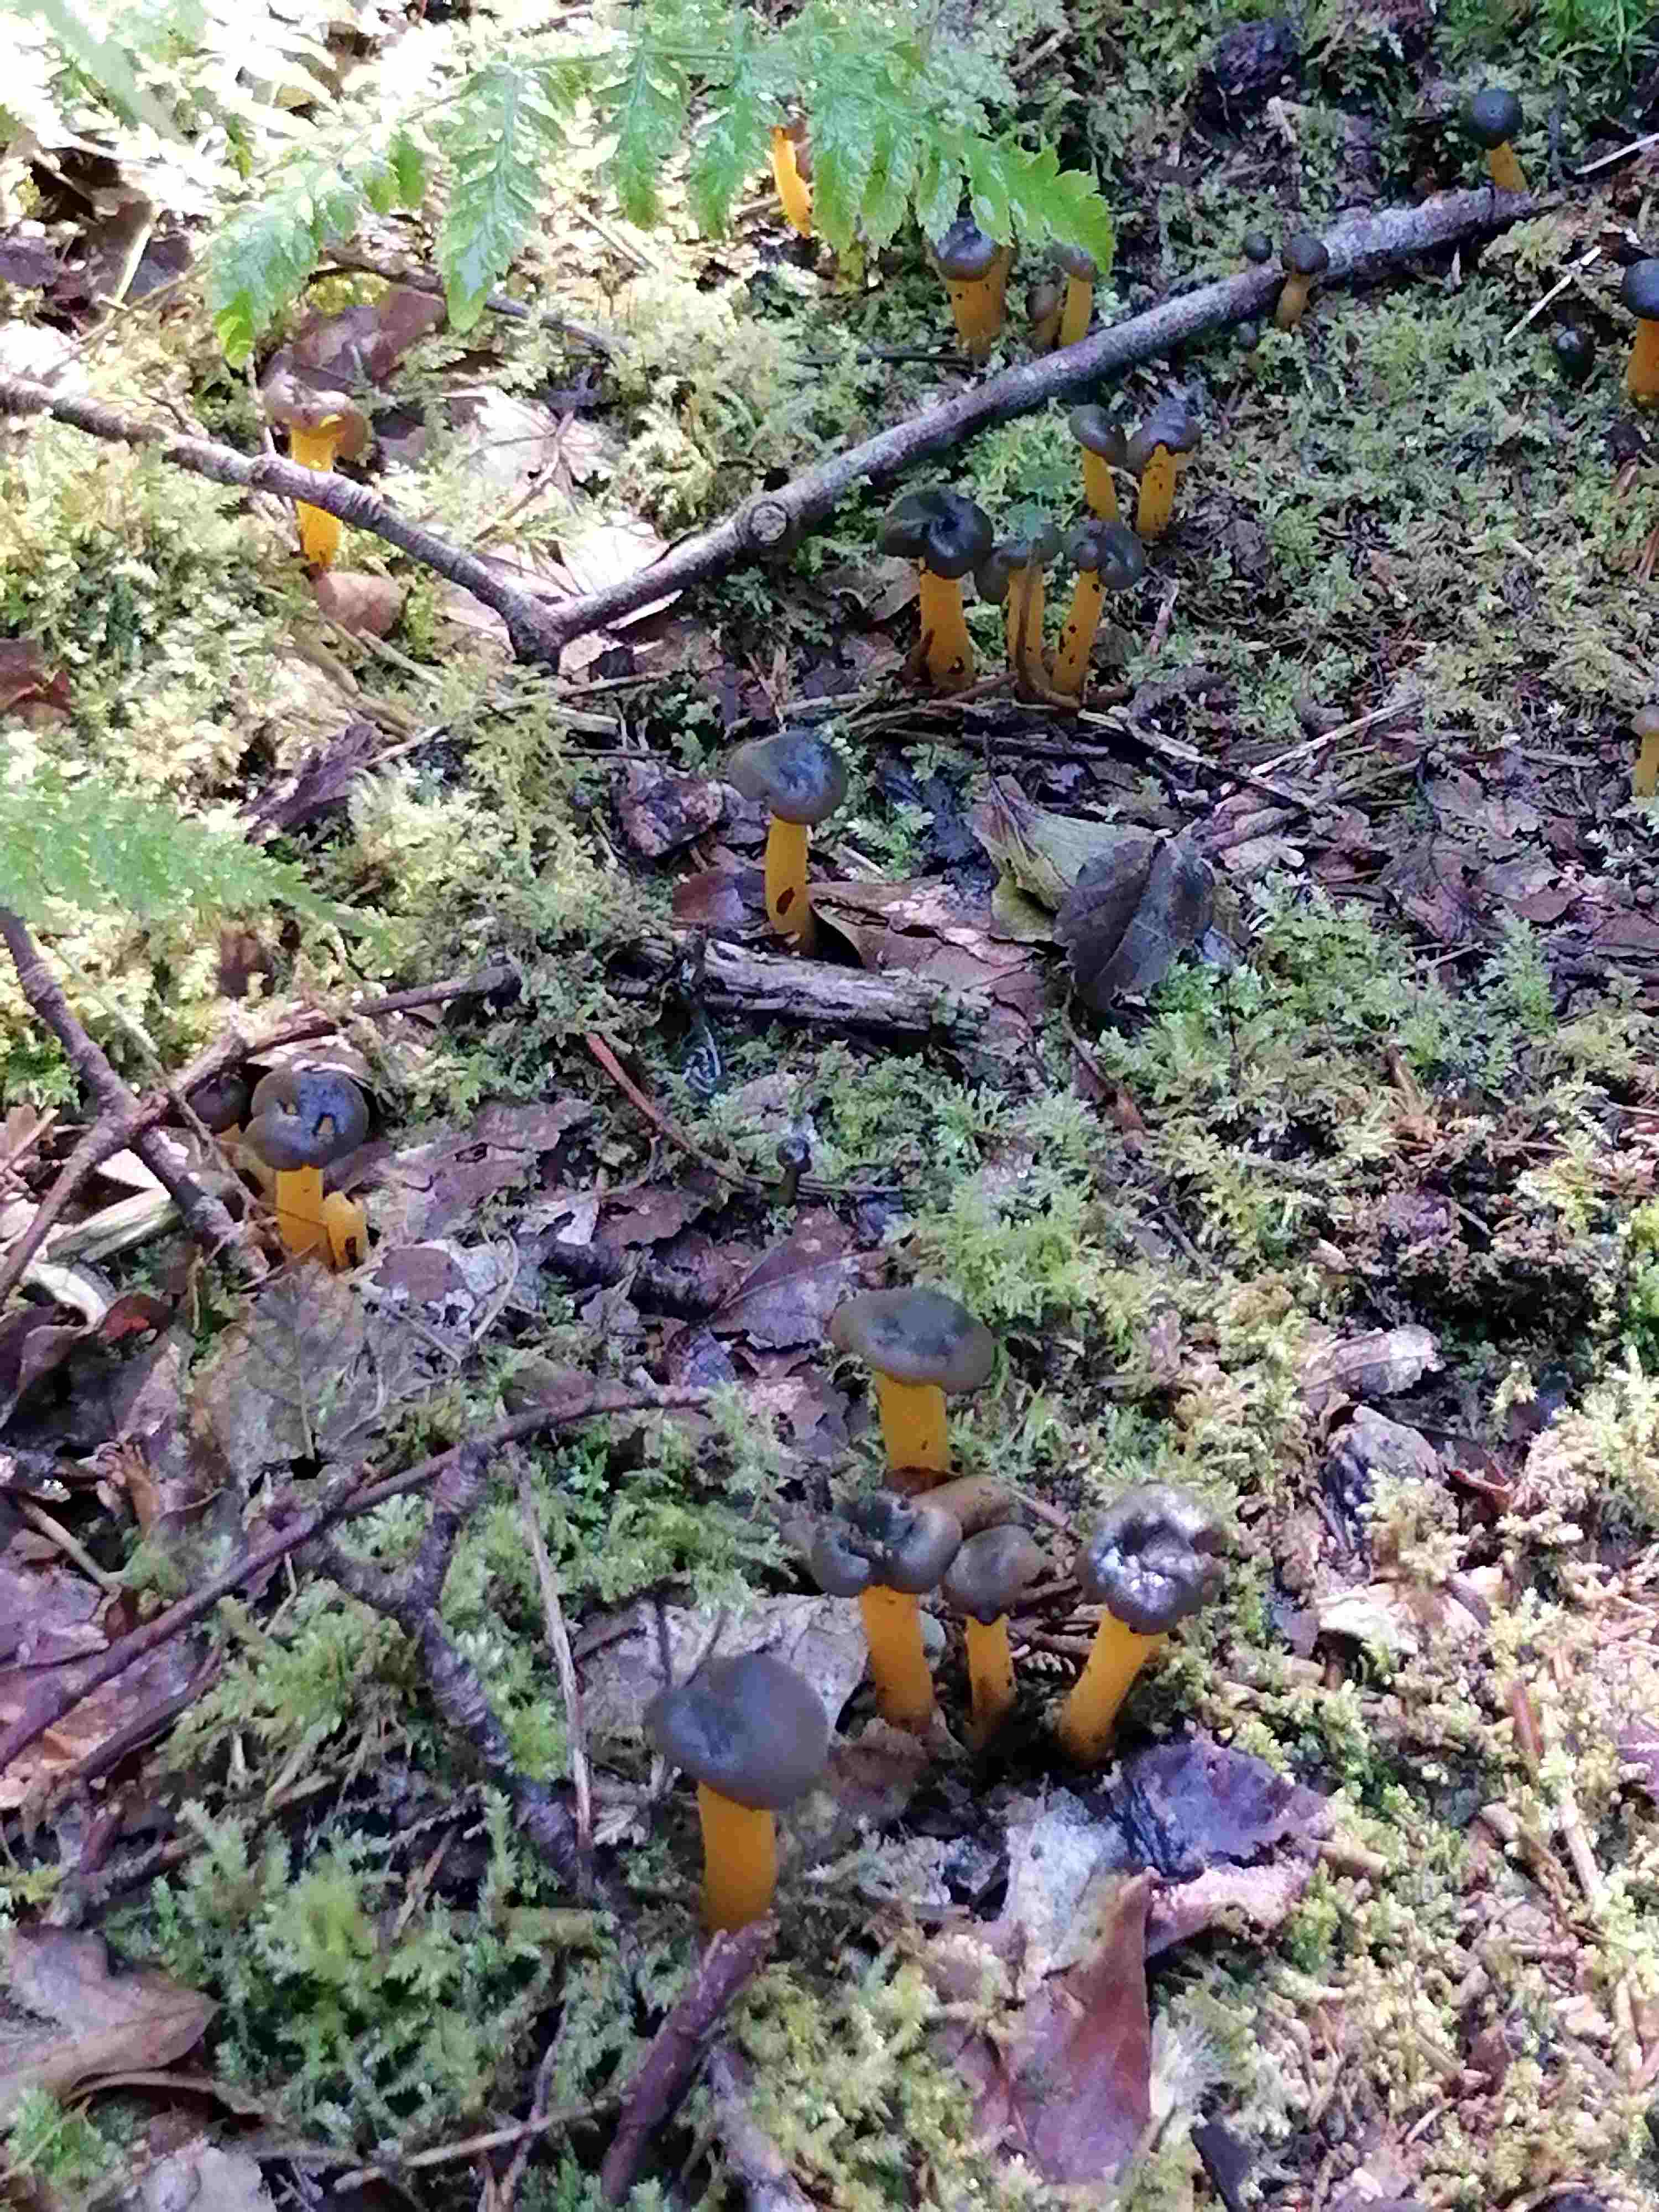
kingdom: Fungi
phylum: Ascomycota
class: Leotiomycetes
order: Leotiales
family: Leotiaceae
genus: Leotia
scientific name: Leotia lubrica
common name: ravsvamp
